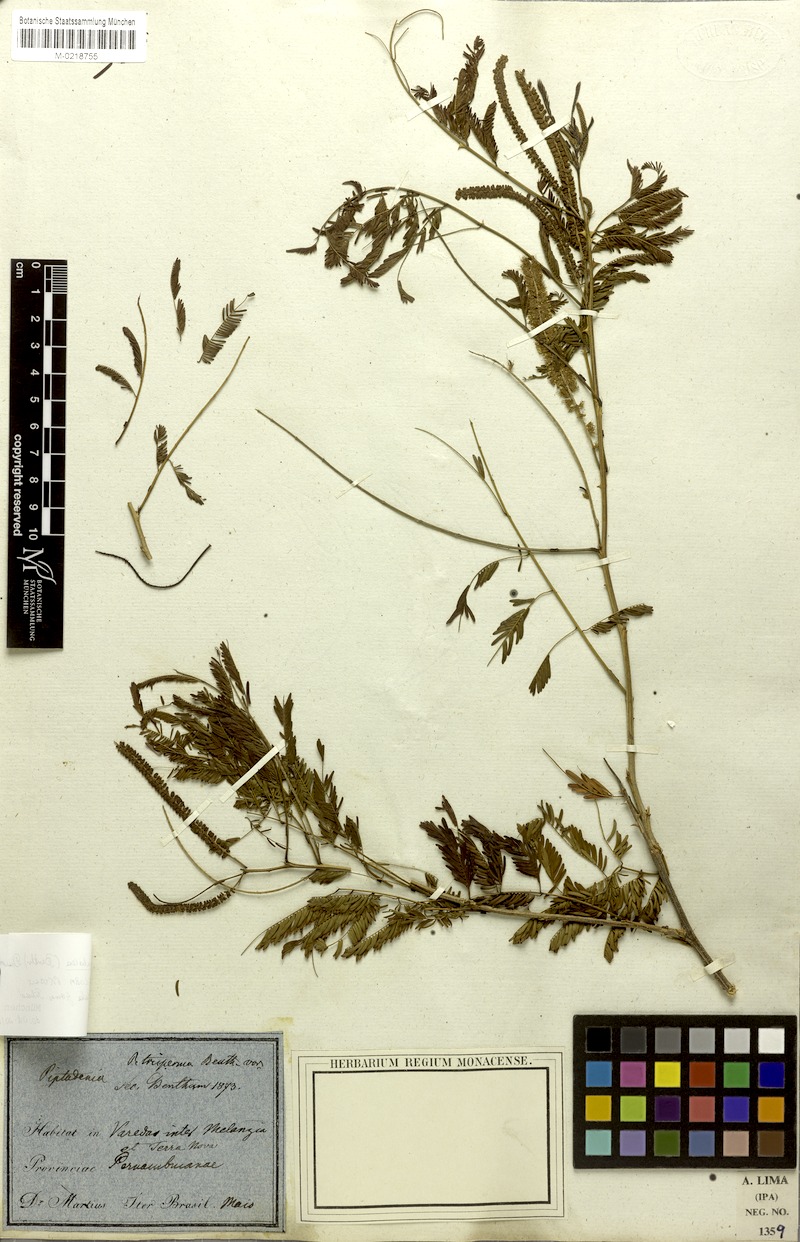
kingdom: Plantae
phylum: Tracheophyta
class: Magnoliopsida
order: Fabales
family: Fabaceae
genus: Piptadenia
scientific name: Piptadenia retusa
